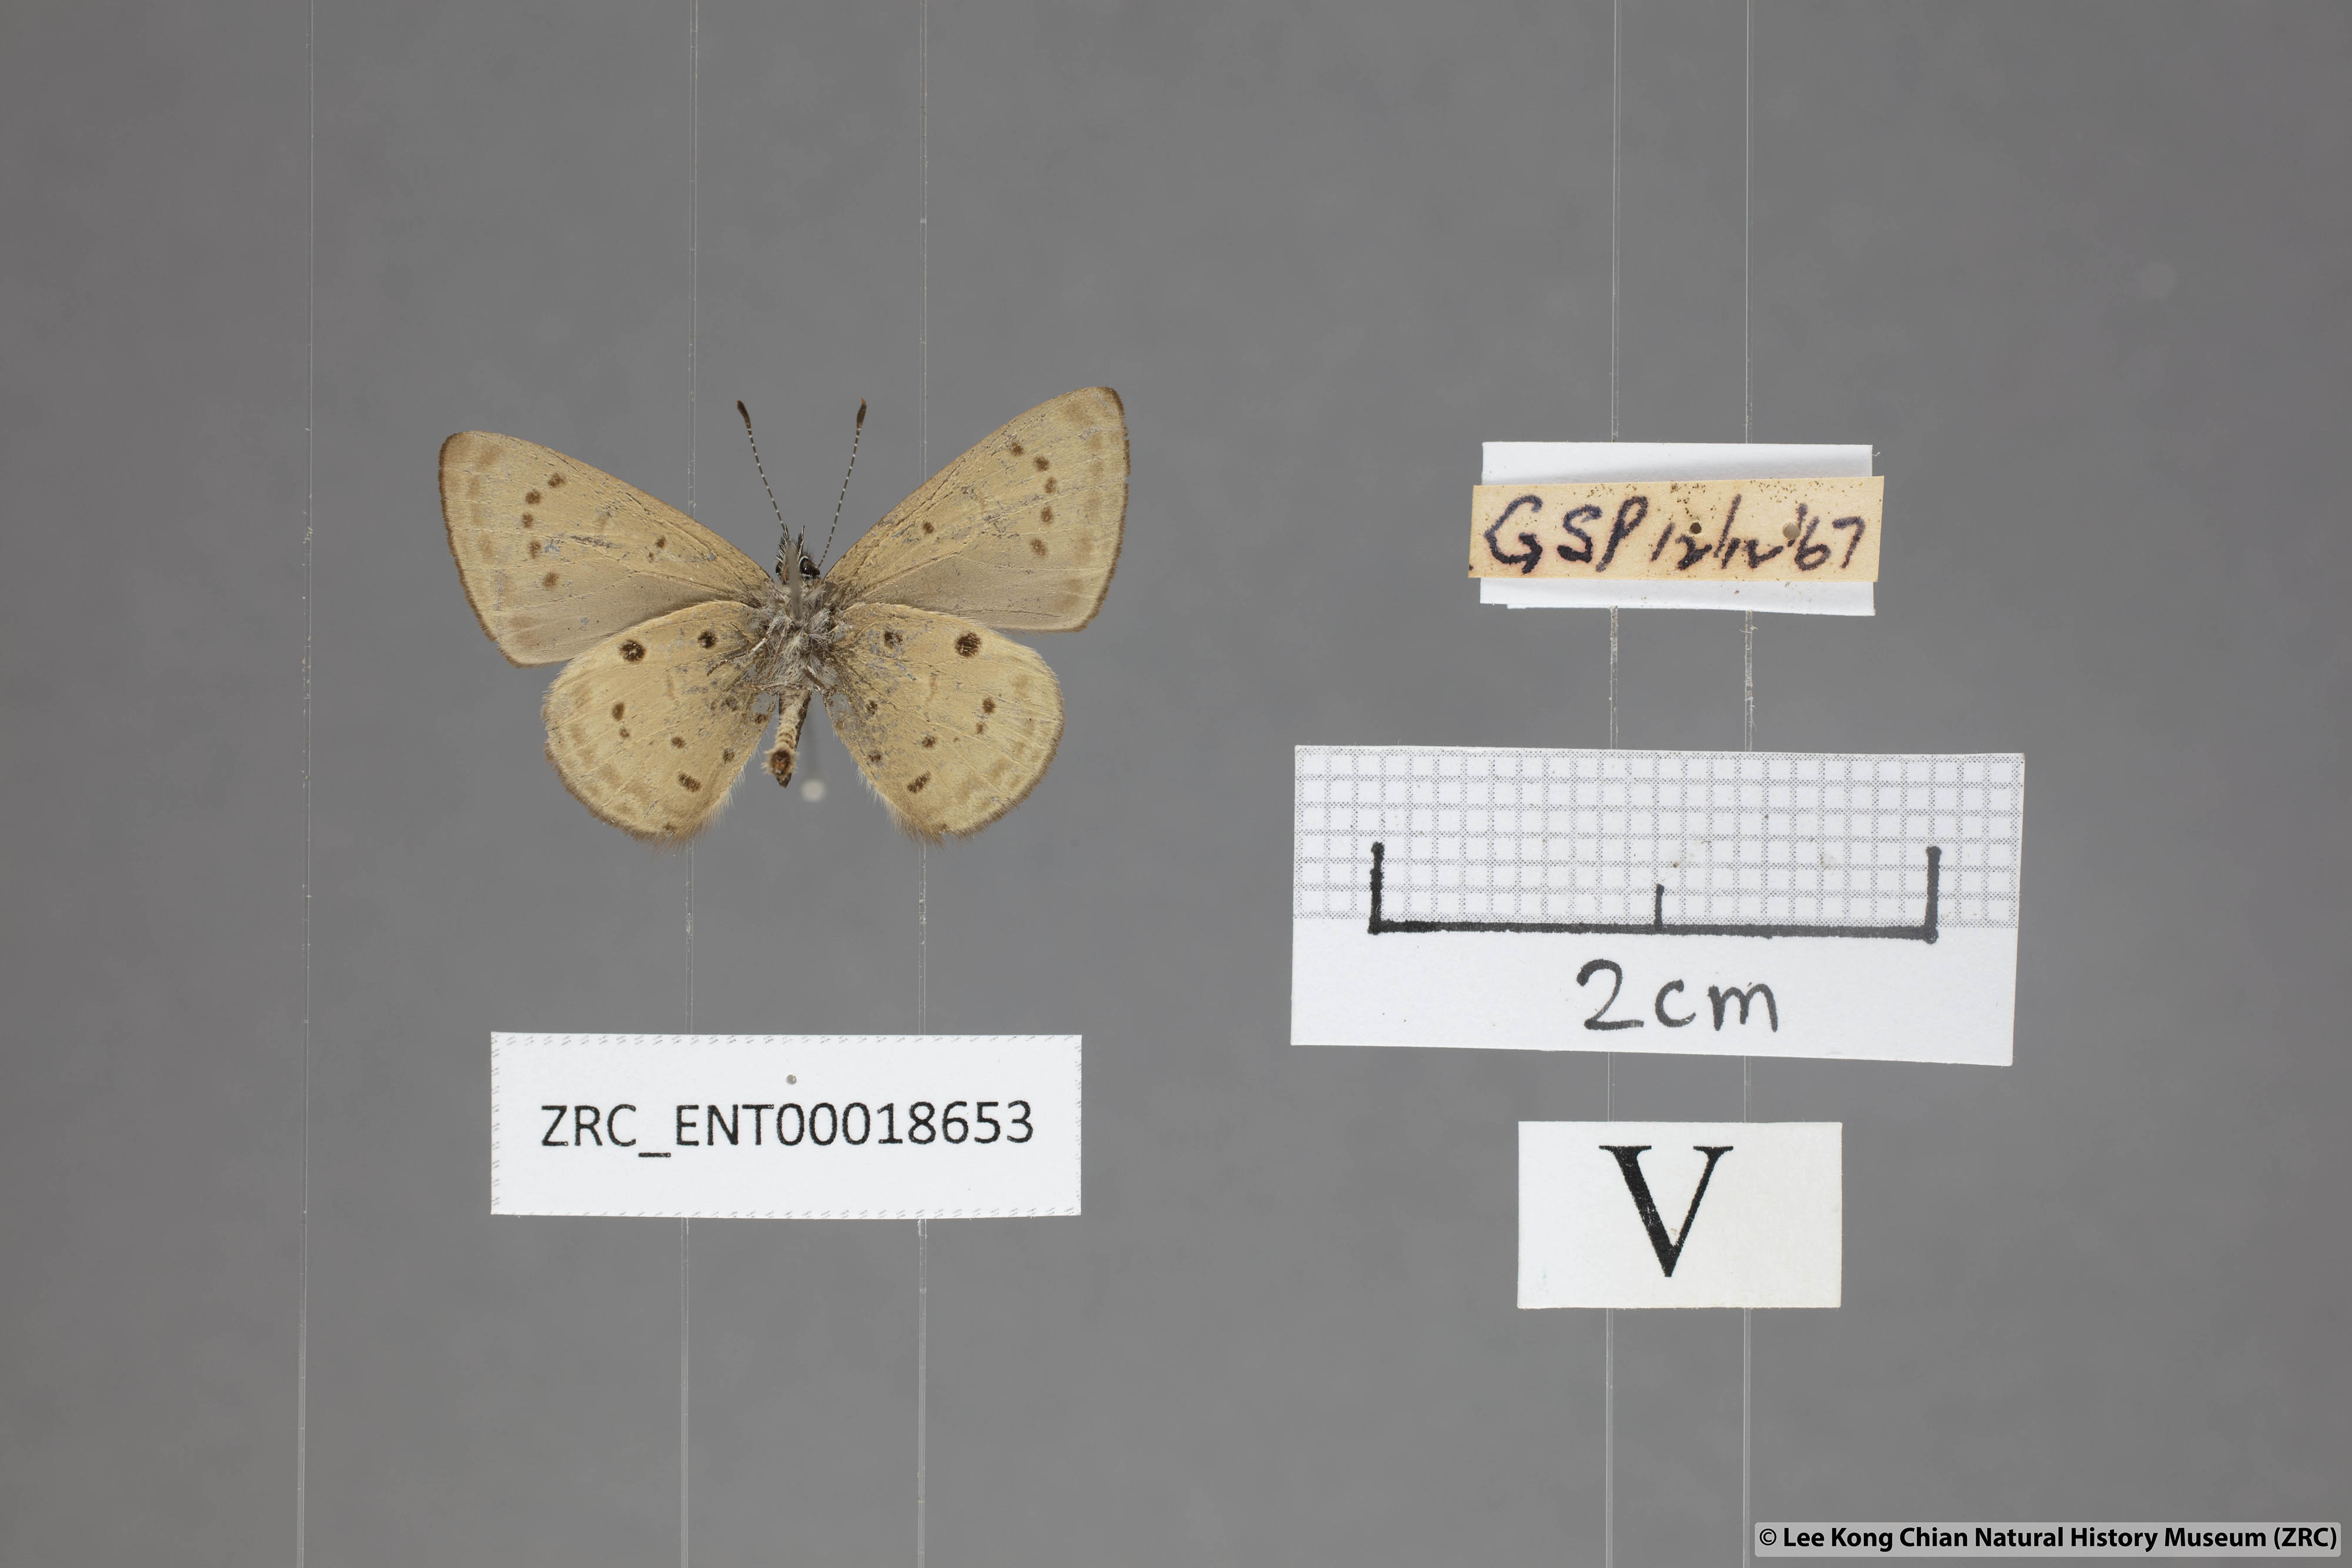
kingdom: Animalia
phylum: Arthropoda
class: Insecta
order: Lepidoptera
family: Lycaenidae
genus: Una
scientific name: Una usta
